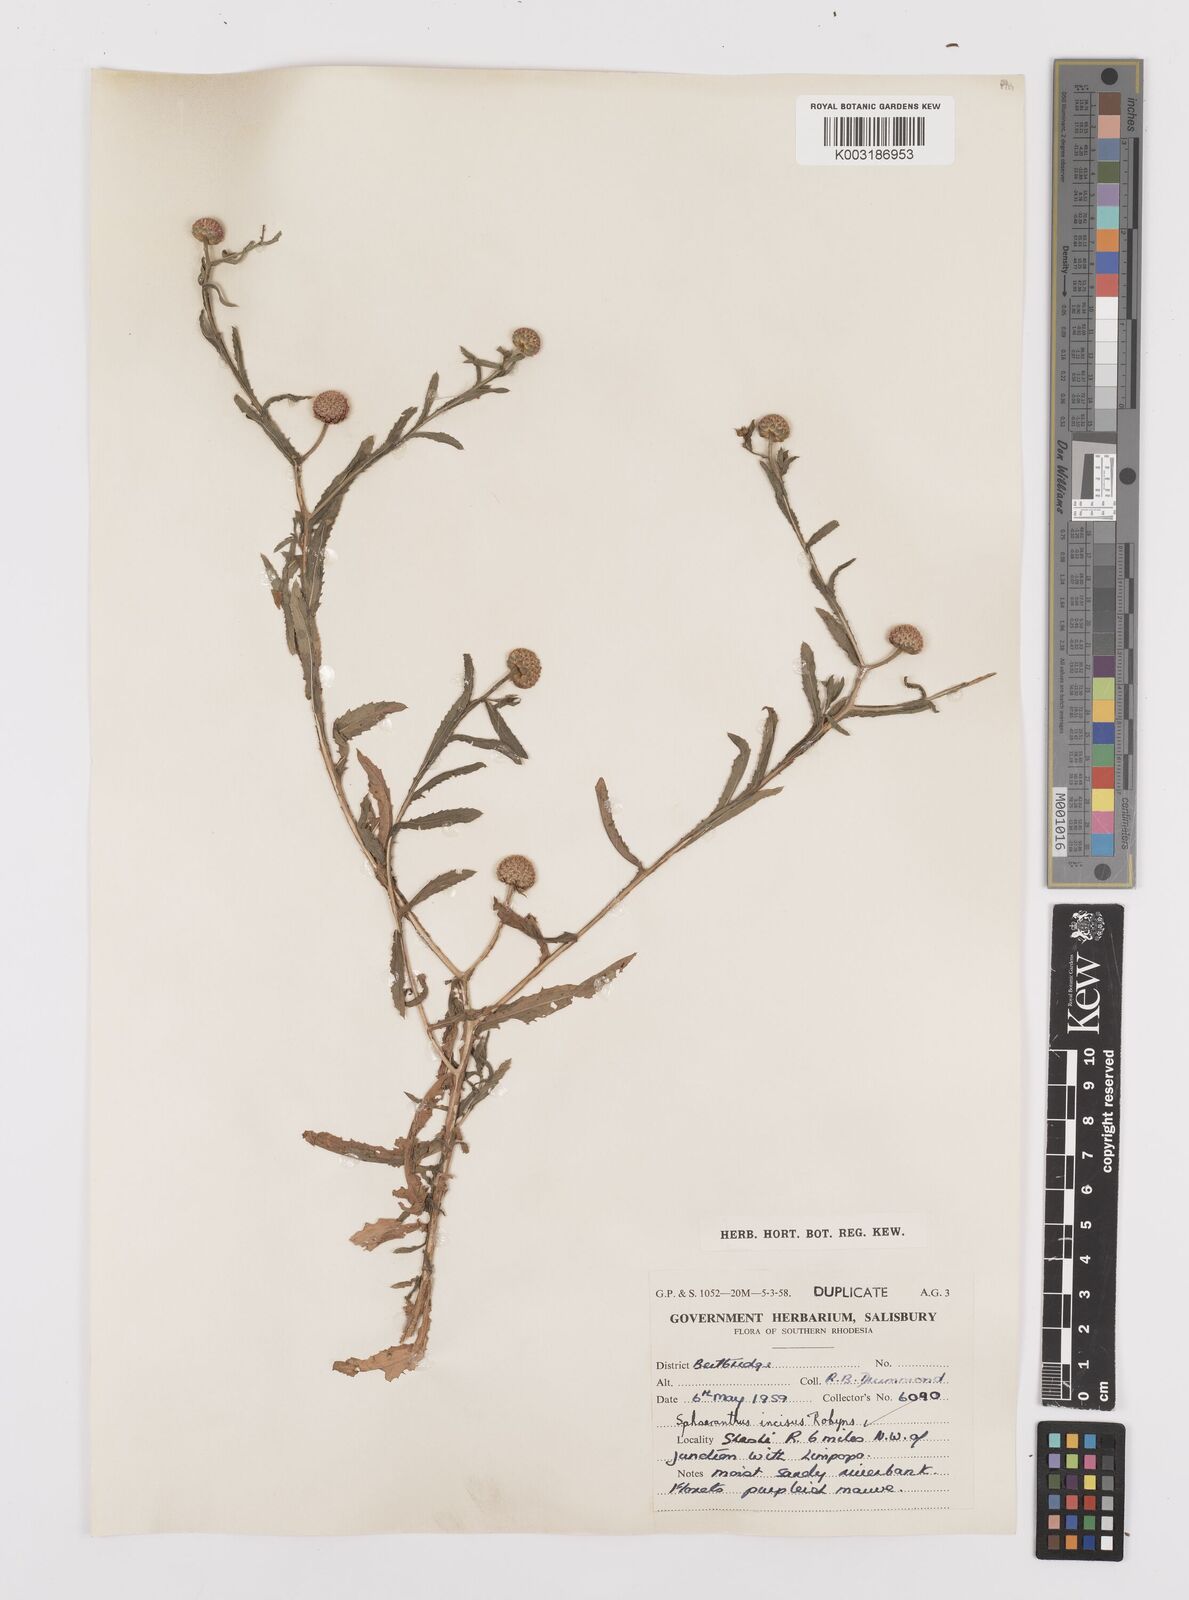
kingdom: Plantae
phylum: Tracheophyta
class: Magnoliopsida
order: Asterales
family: Asteraceae
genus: Sphaeranthus
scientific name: Sphaeranthus peduncularis
